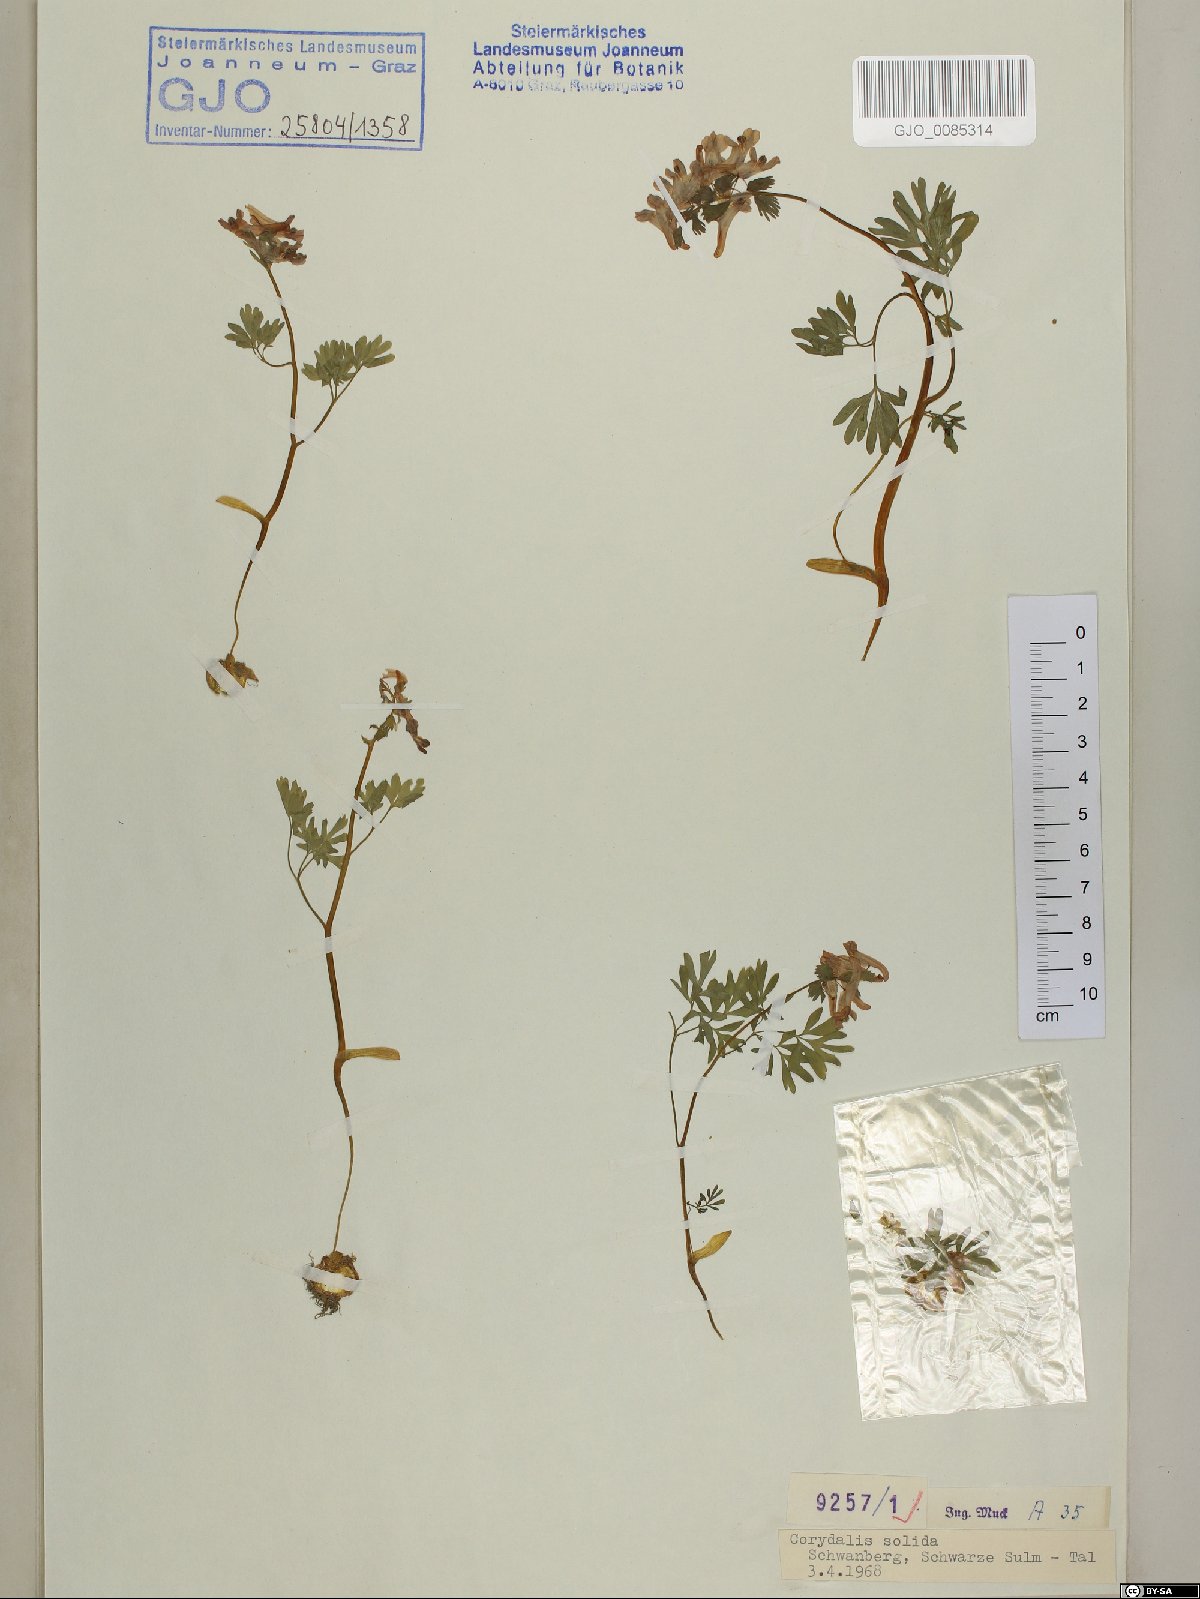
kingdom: Plantae
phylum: Tracheophyta
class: Magnoliopsida
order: Ranunculales
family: Papaveraceae
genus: Corydalis
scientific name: Corydalis solida
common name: Bird-in-a-bush
